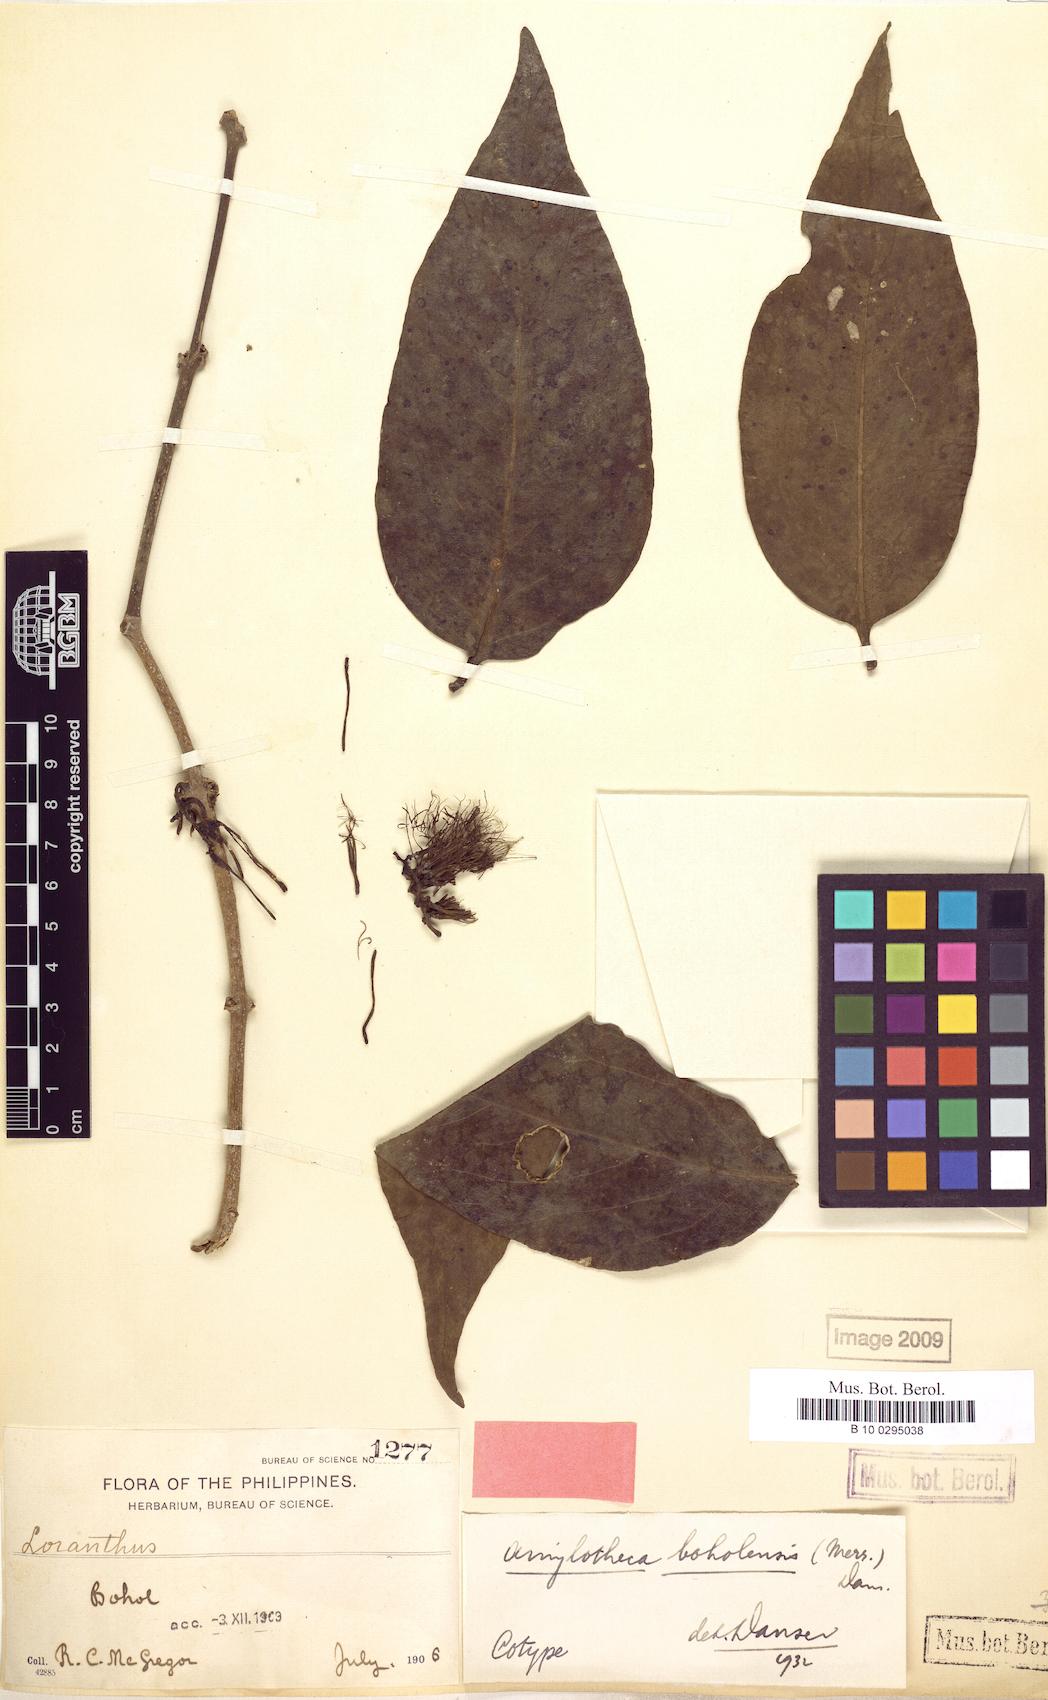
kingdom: Plantae
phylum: Tracheophyta
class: Magnoliopsida
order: Santalales
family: Loranthaceae
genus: Decaisnina
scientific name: Decaisnina sumbawensis
